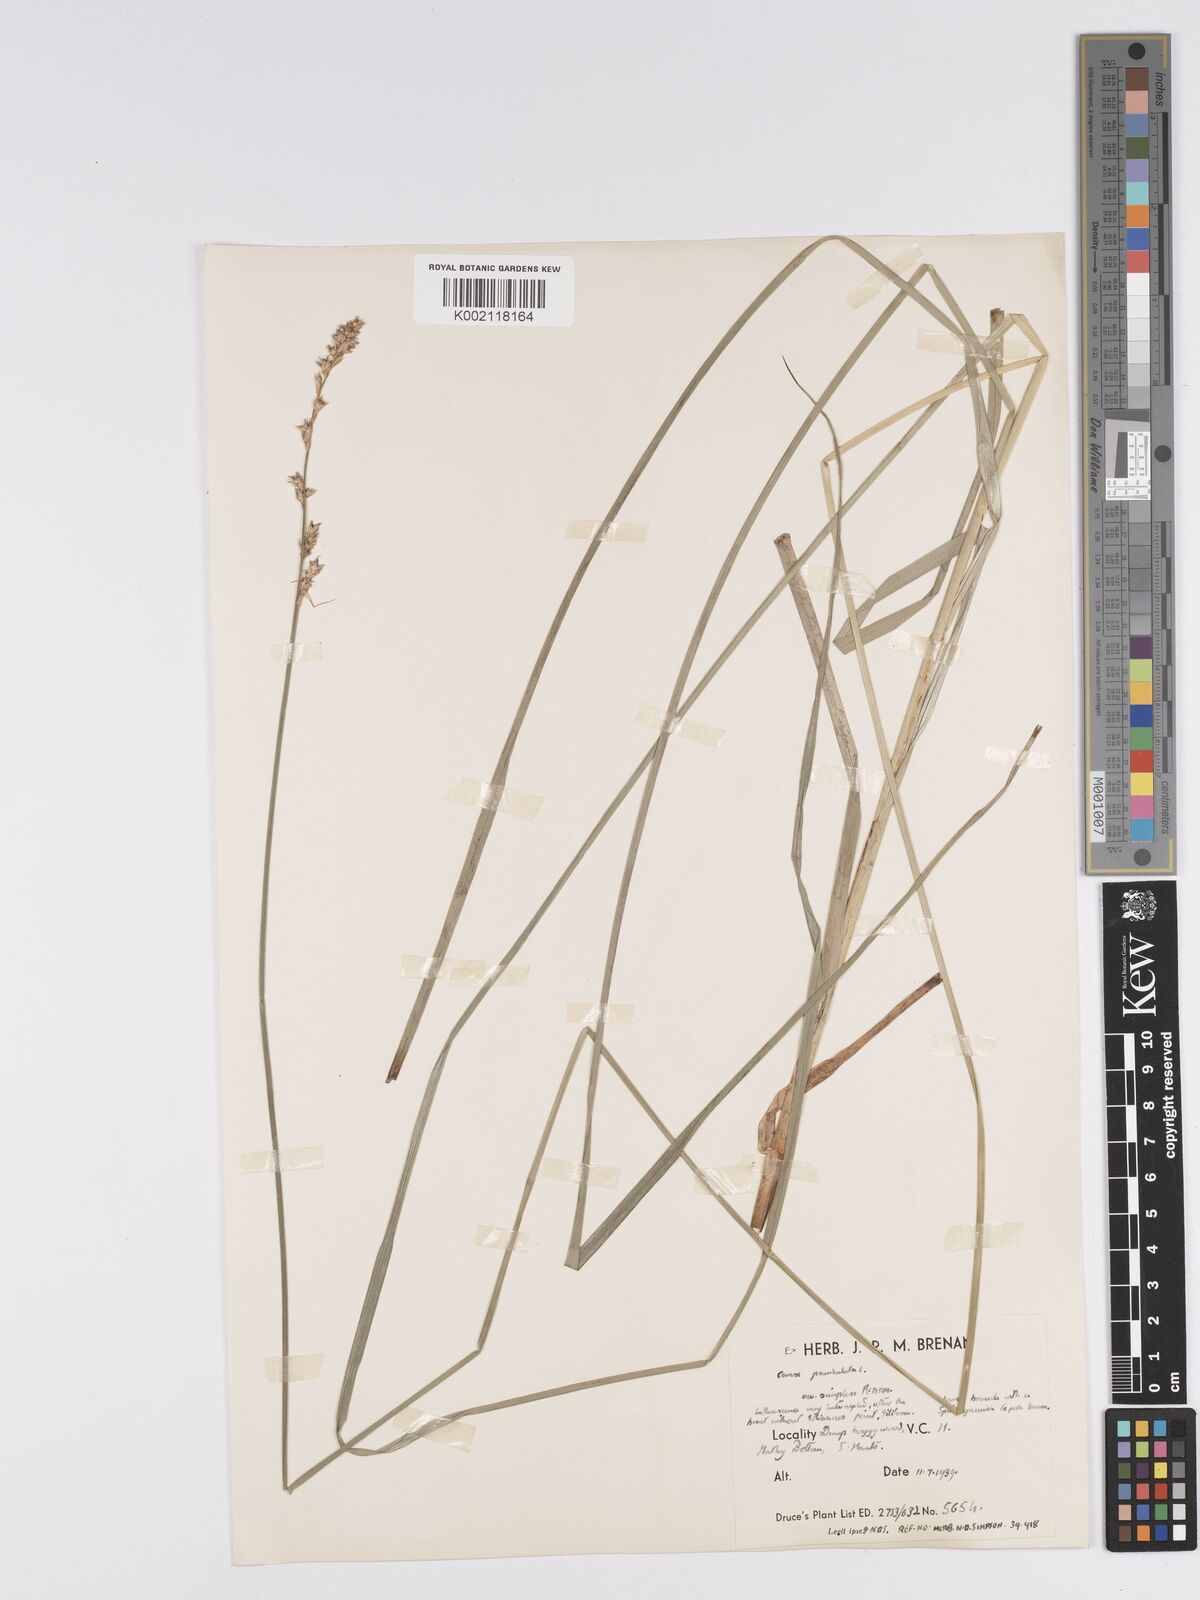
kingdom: Plantae
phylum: Tracheophyta
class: Liliopsida
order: Poales
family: Cyperaceae
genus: Carex
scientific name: Carex paniculata
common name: Greater tussock-sedge
